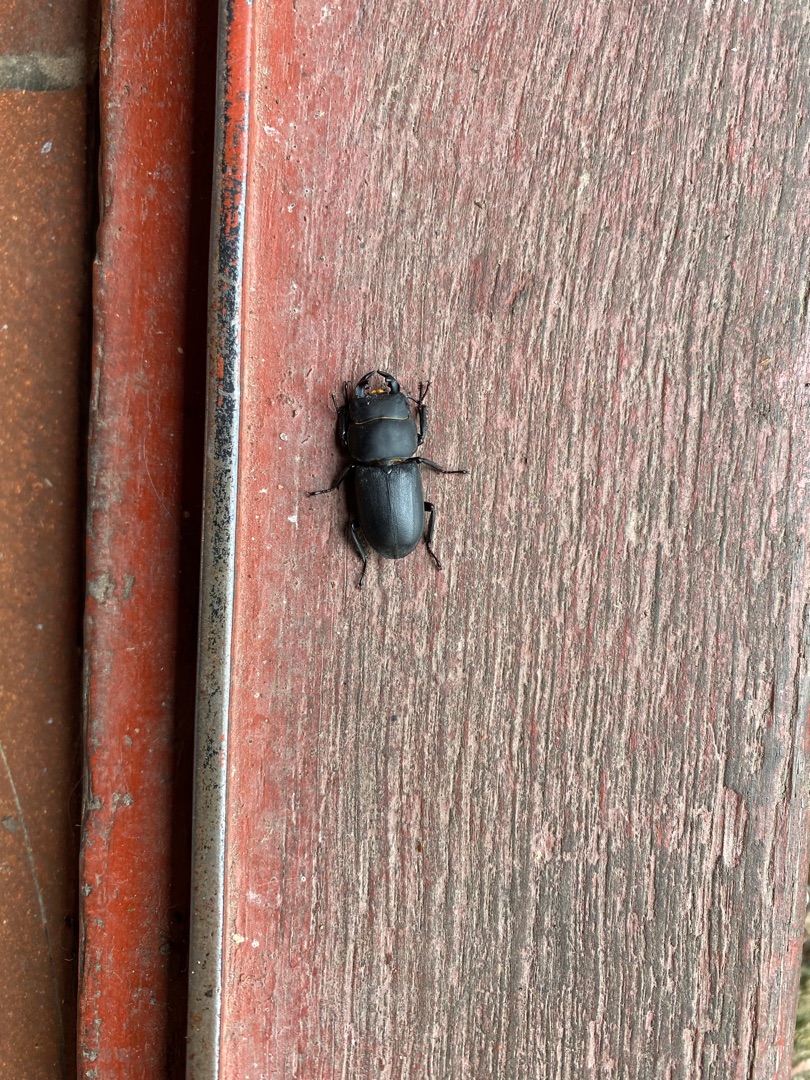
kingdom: Animalia
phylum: Arthropoda
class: Insecta
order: Coleoptera
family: Lucanidae
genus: Dorcus
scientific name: Dorcus parallelipipedus
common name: Bøghjort
